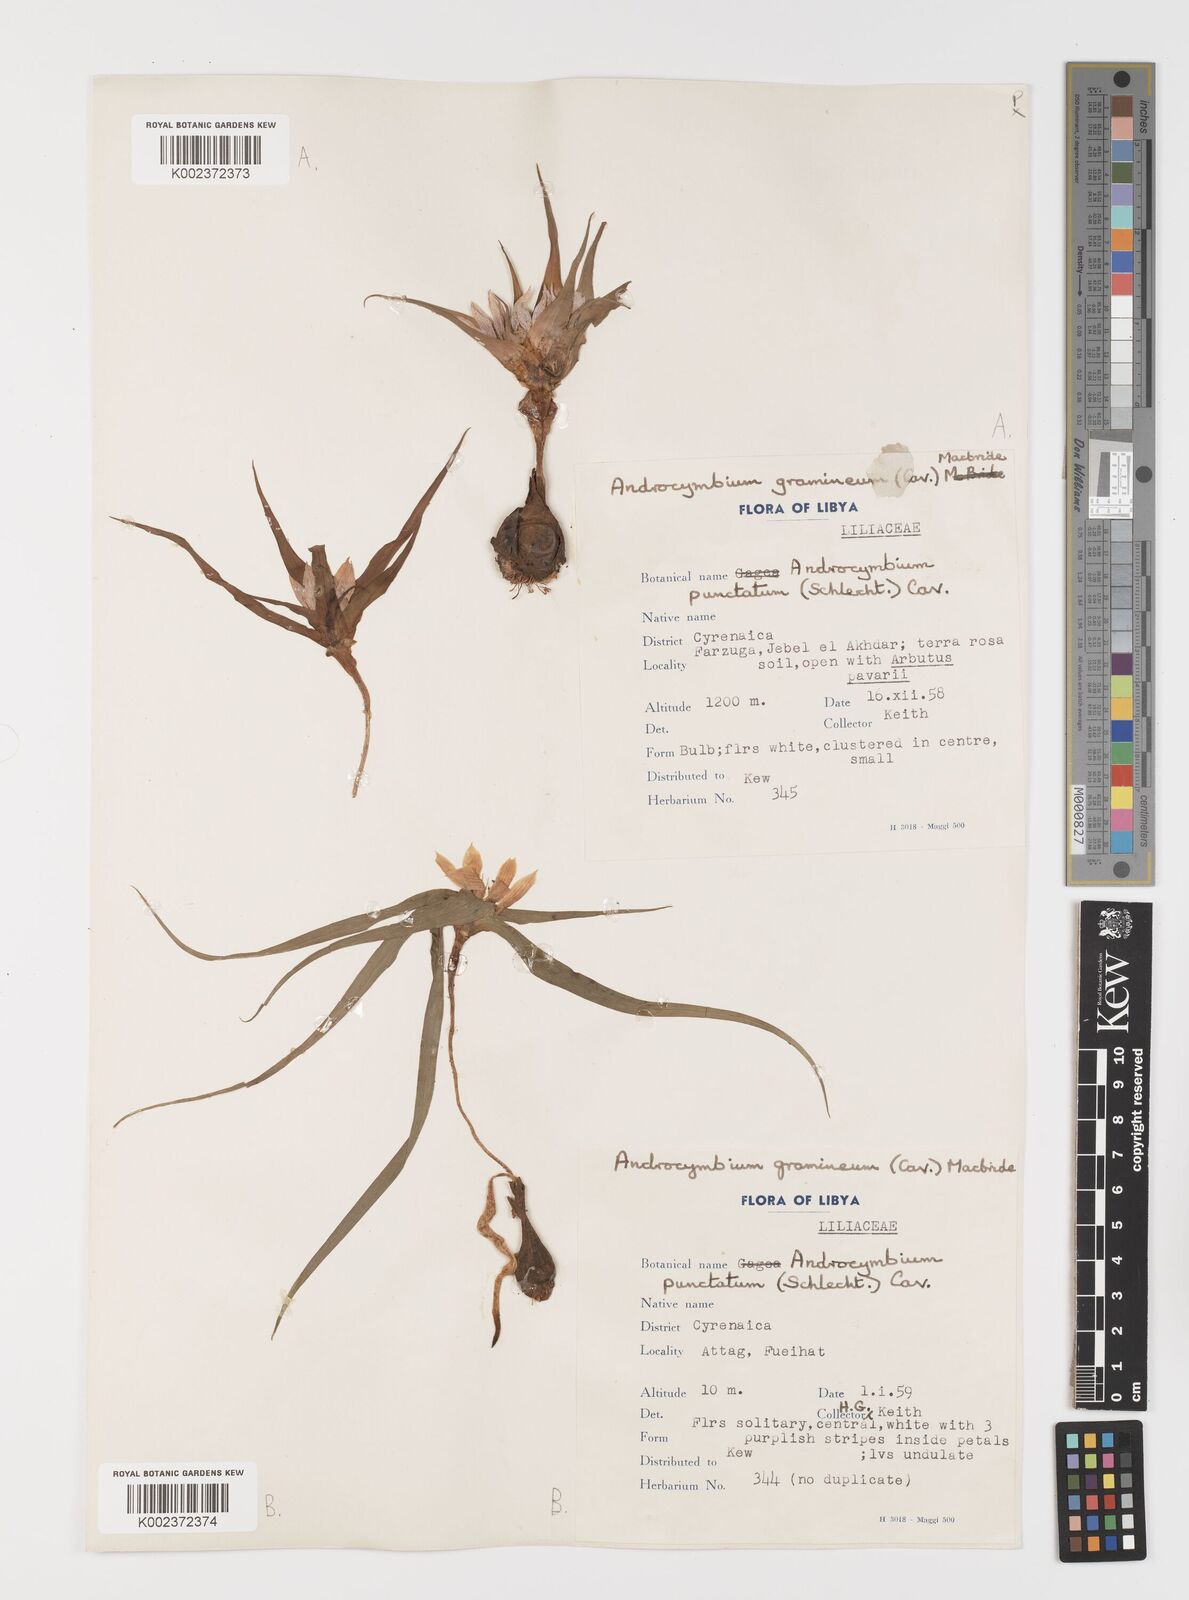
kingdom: Plantae
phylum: Tracheophyta
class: Liliopsida
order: Liliales
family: Colchicaceae
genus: Colchicum
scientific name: Colchicum gramineum
